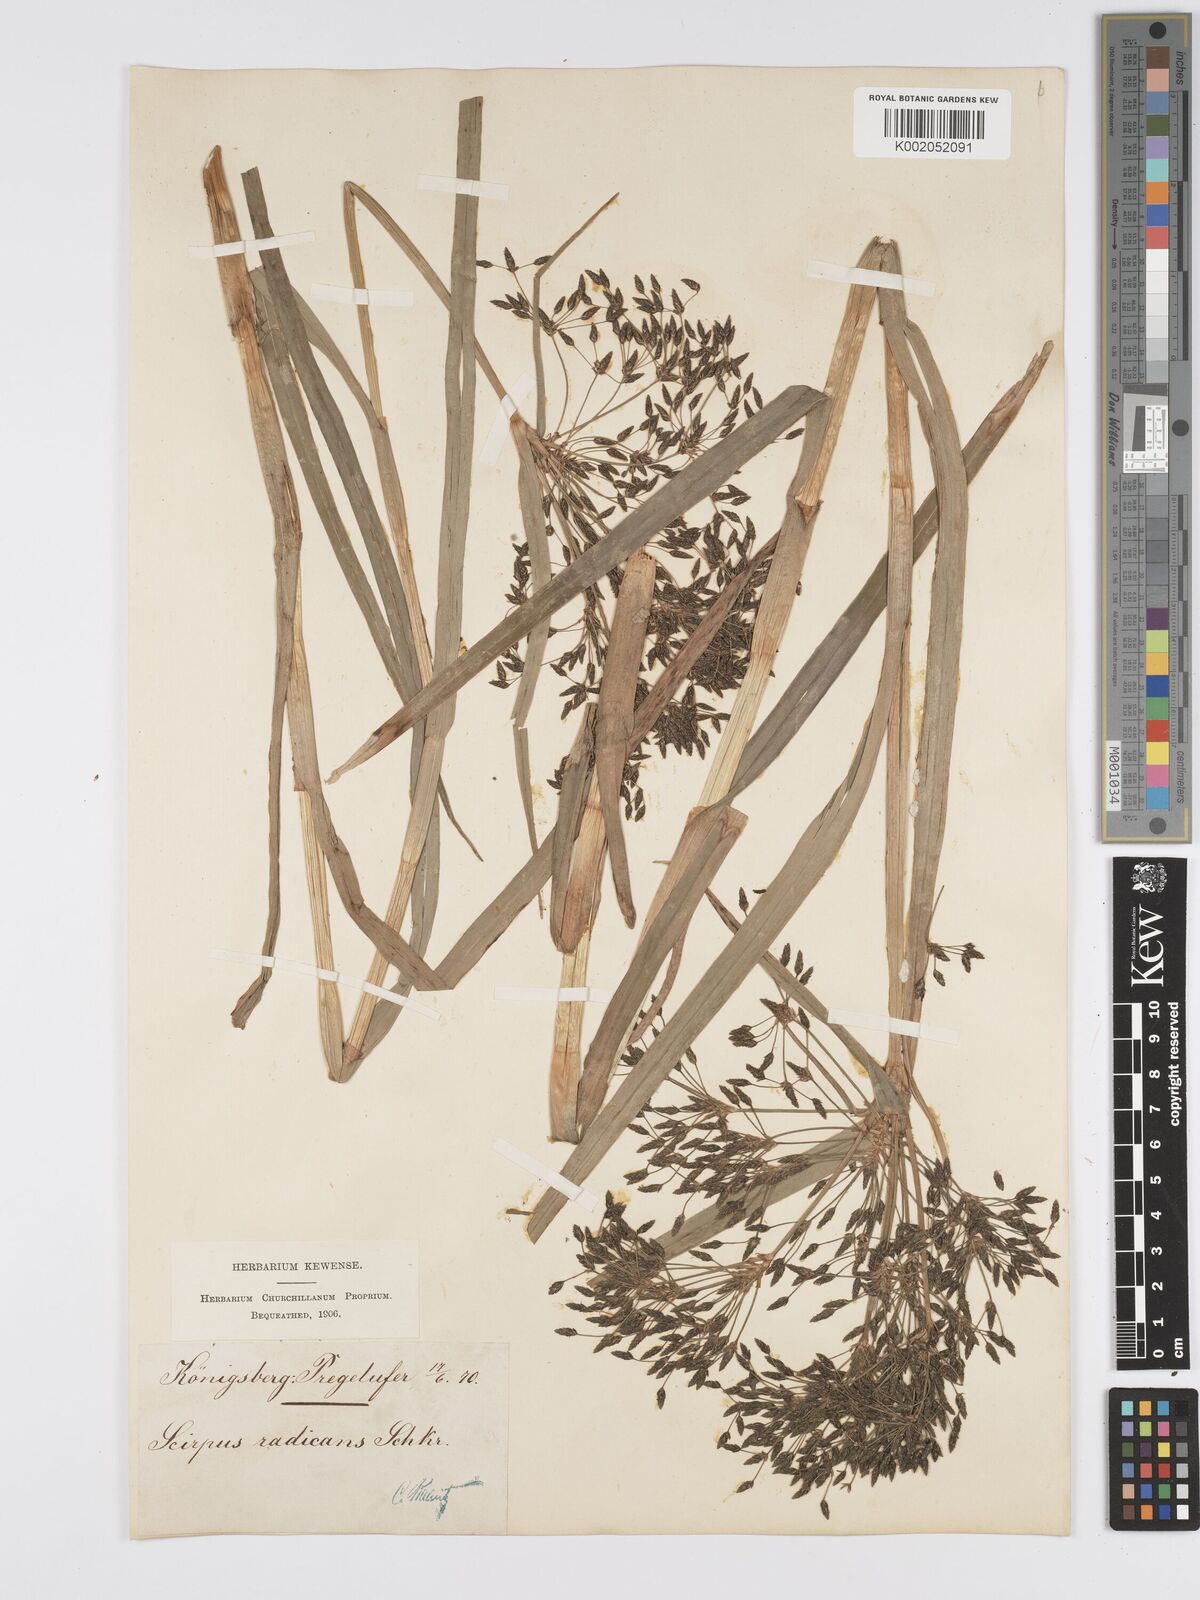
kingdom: Plantae
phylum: Tracheophyta
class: Liliopsida
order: Poales
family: Cyperaceae
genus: Scirpus
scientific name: Scirpus radicans
